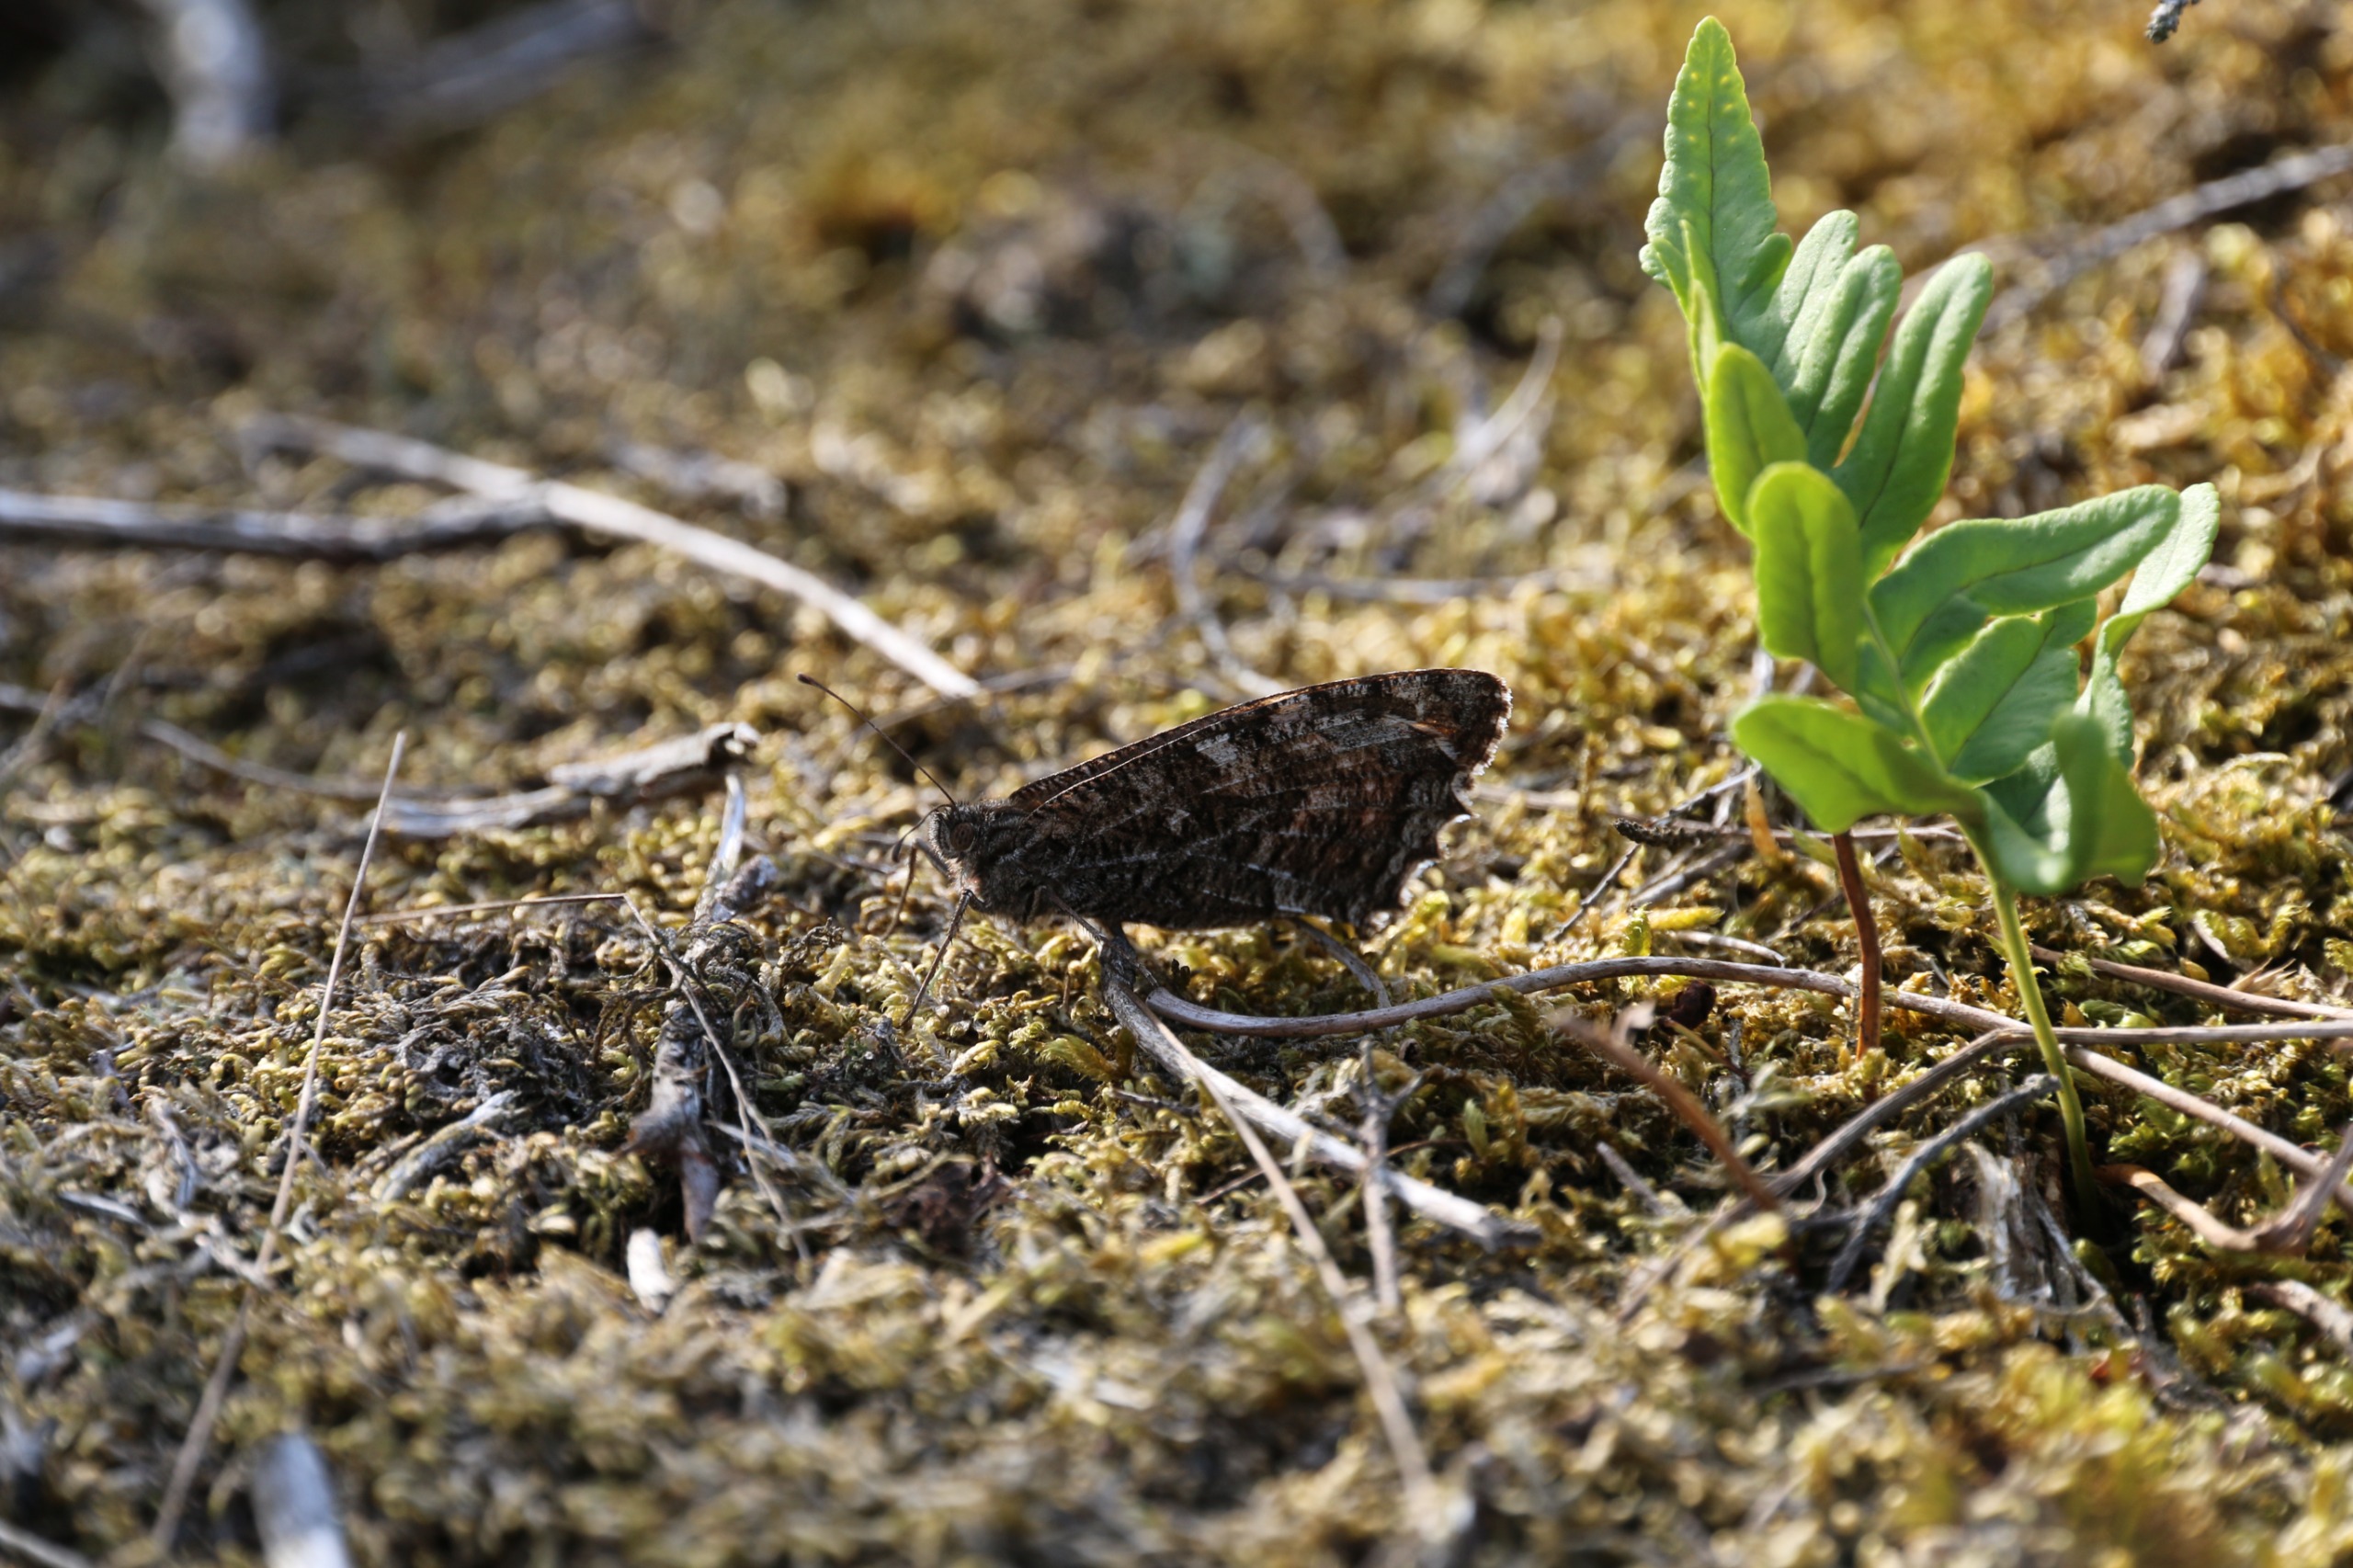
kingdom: Animalia
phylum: Arthropoda
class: Insecta
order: Lepidoptera
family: Nymphalidae
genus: Hipparchia
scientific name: Hipparchia semele
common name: Sandrandøje
